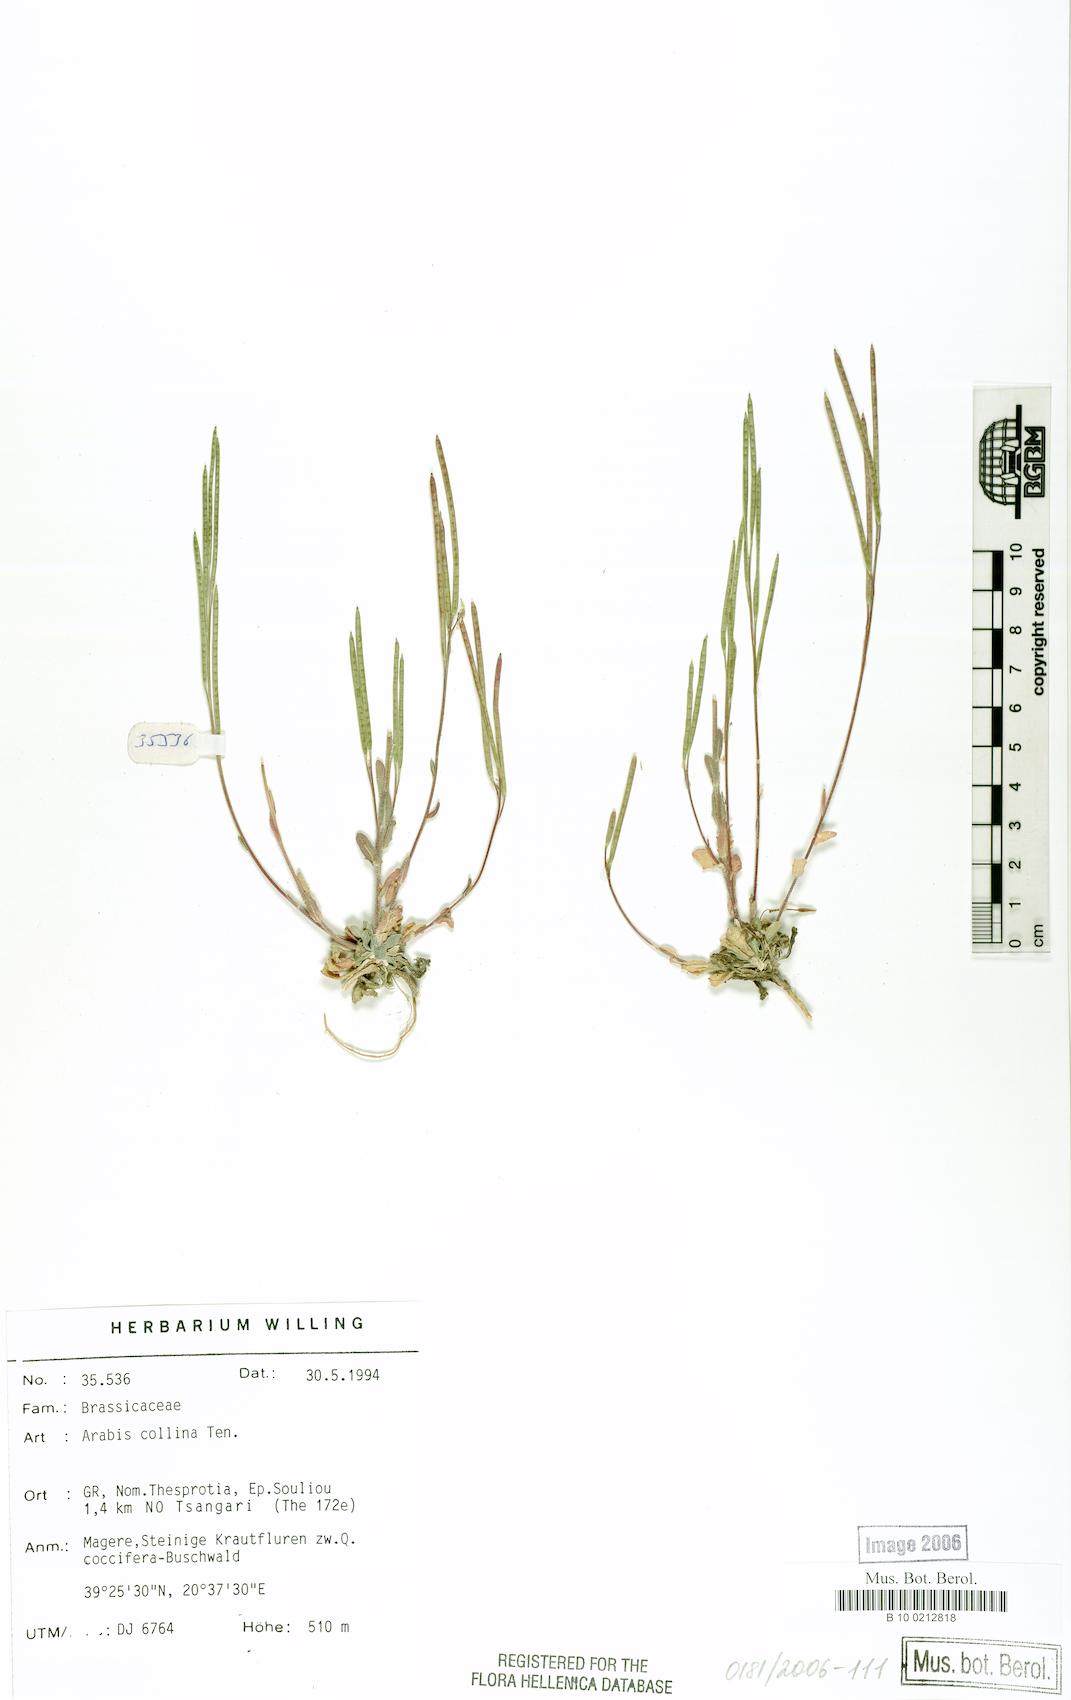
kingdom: Plantae
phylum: Tracheophyta
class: Magnoliopsida
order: Brassicales
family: Brassicaceae
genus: Arabis
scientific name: Arabis collina
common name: Rosy cress
